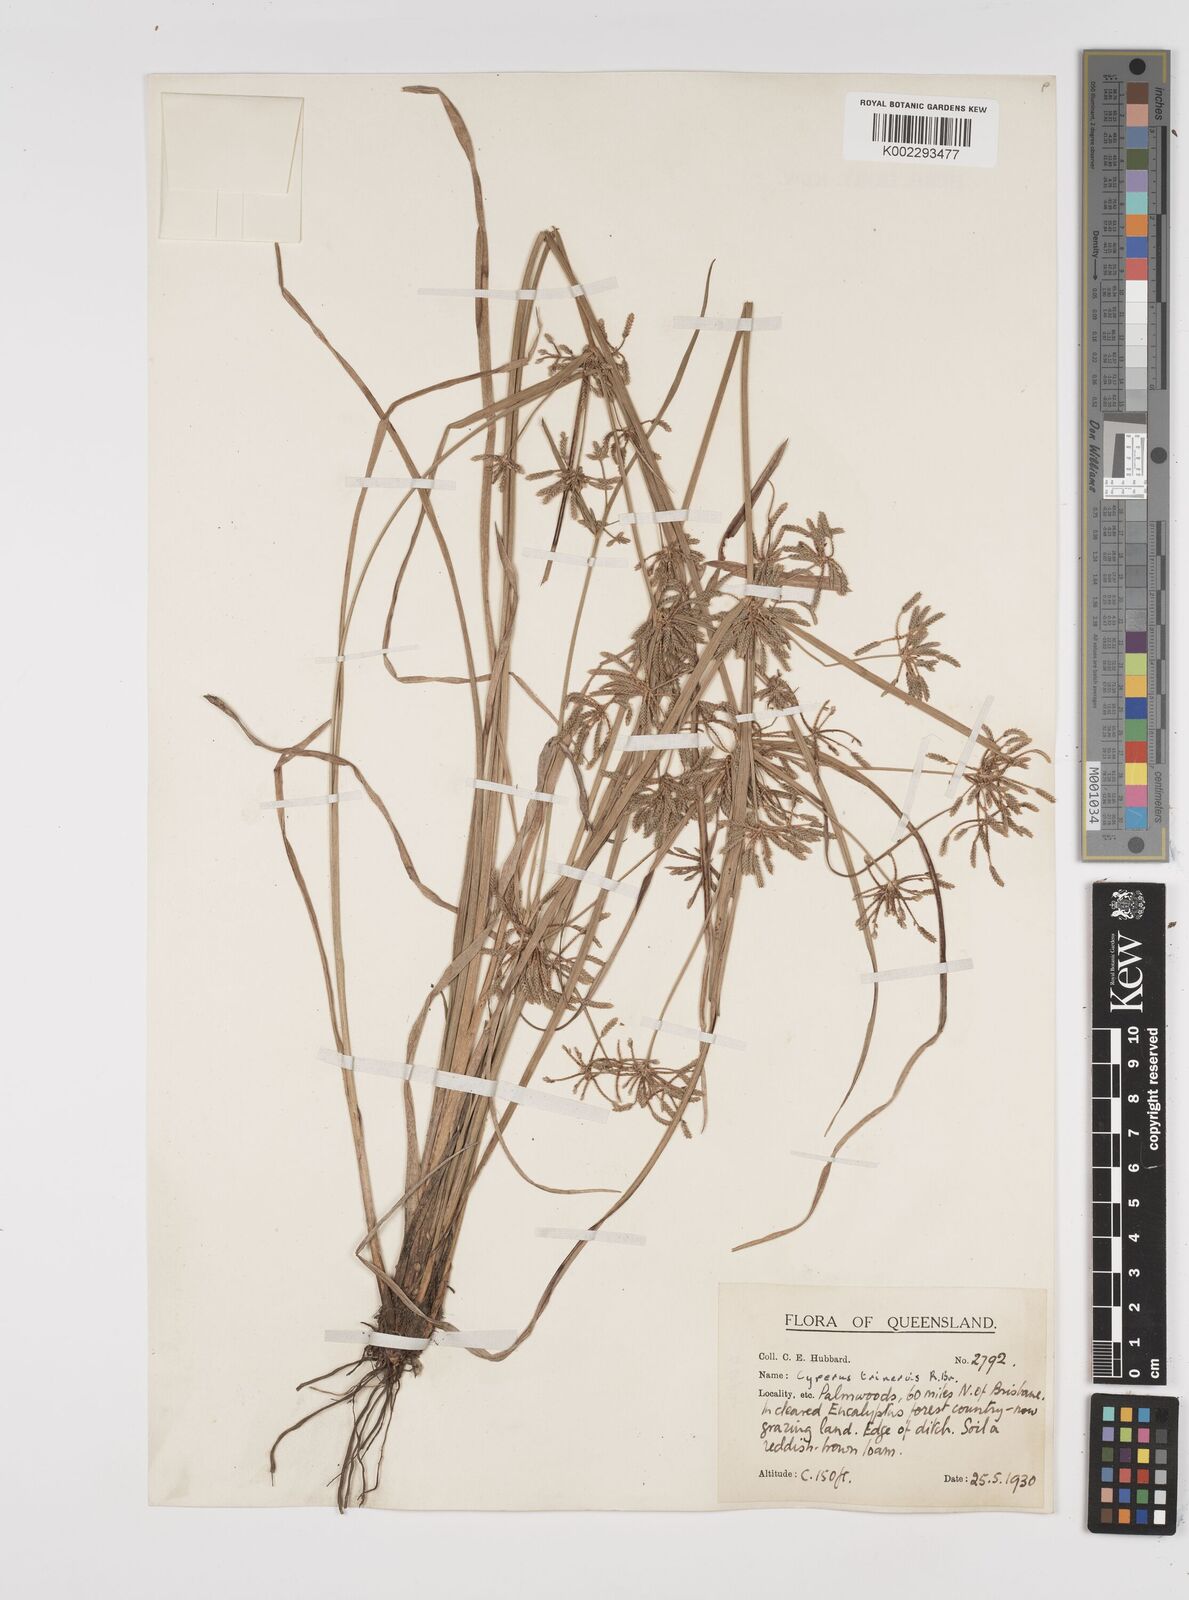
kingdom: Plantae
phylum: Tracheophyta
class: Liliopsida
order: Poales
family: Cyperaceae
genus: Cyperus
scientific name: Cyperus trinervis
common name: Australian flatsedge
